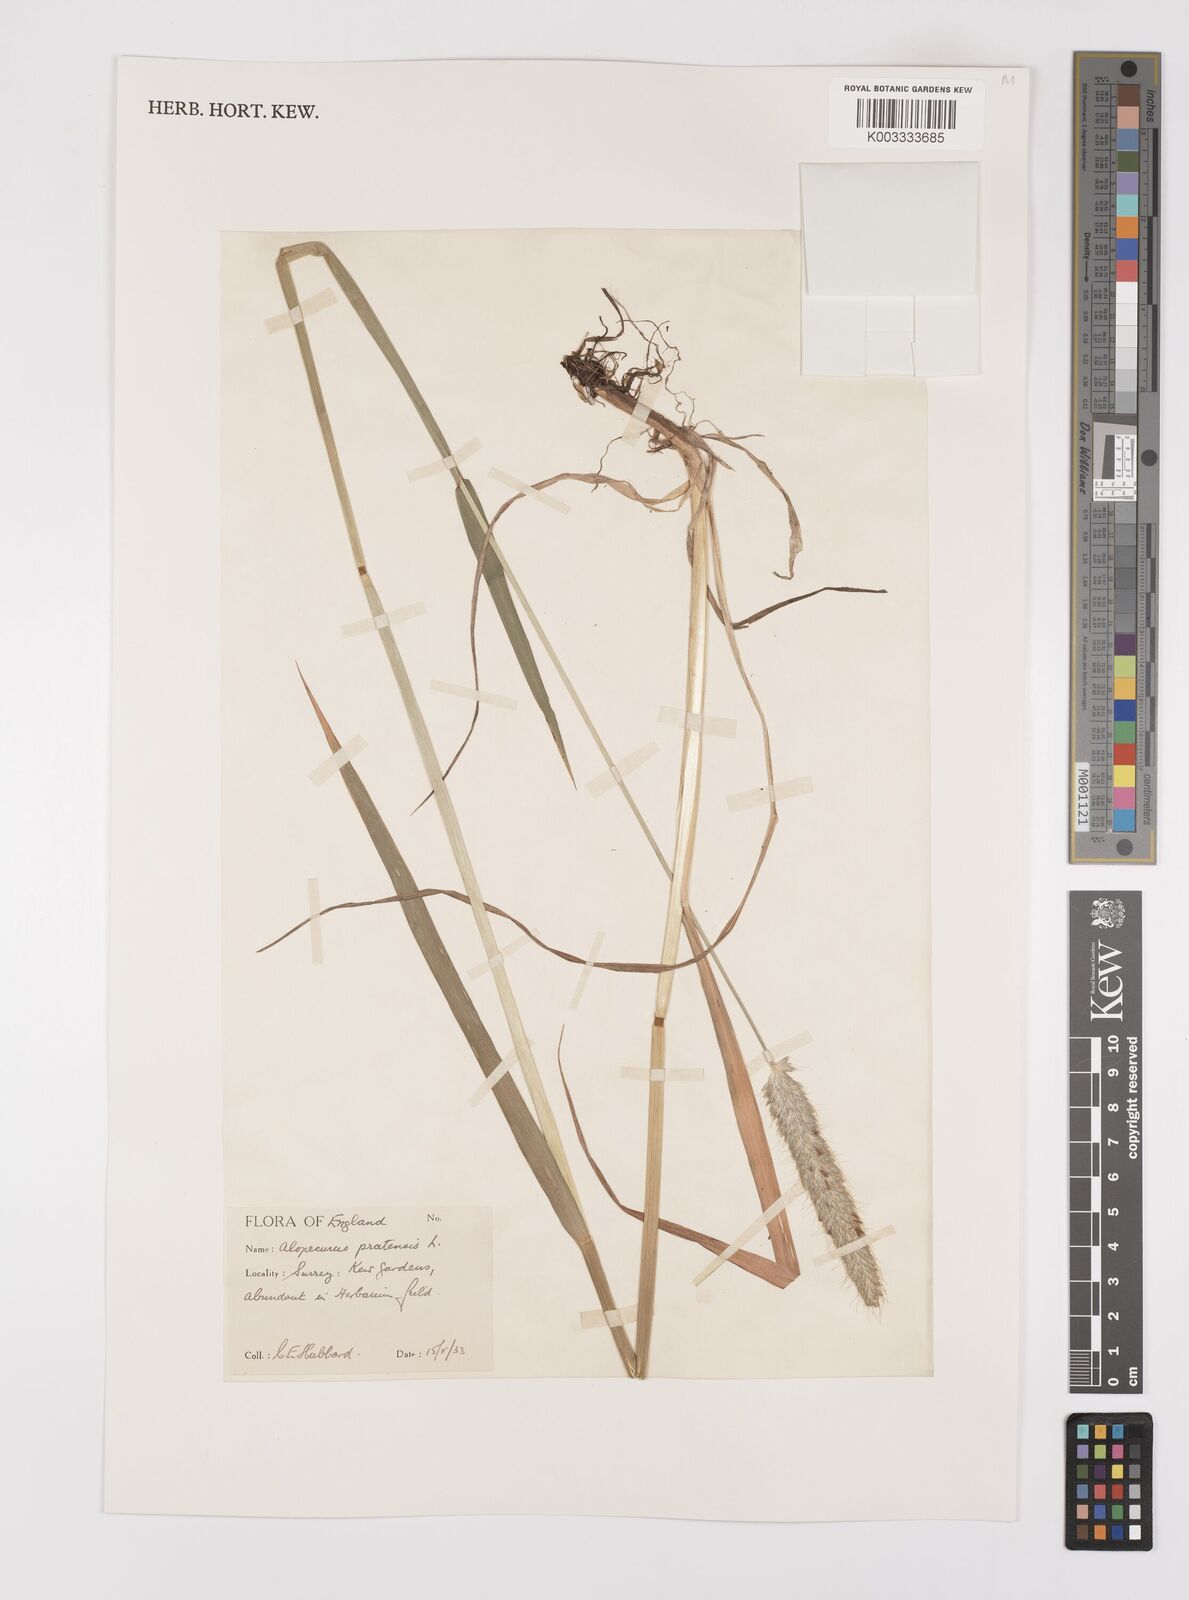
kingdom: Plantae
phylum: Tracheophyta
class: Liliopsida
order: Poales
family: Poaceae
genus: Alopecurus
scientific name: Alopecurus pratensis
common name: Meadow foxtail
